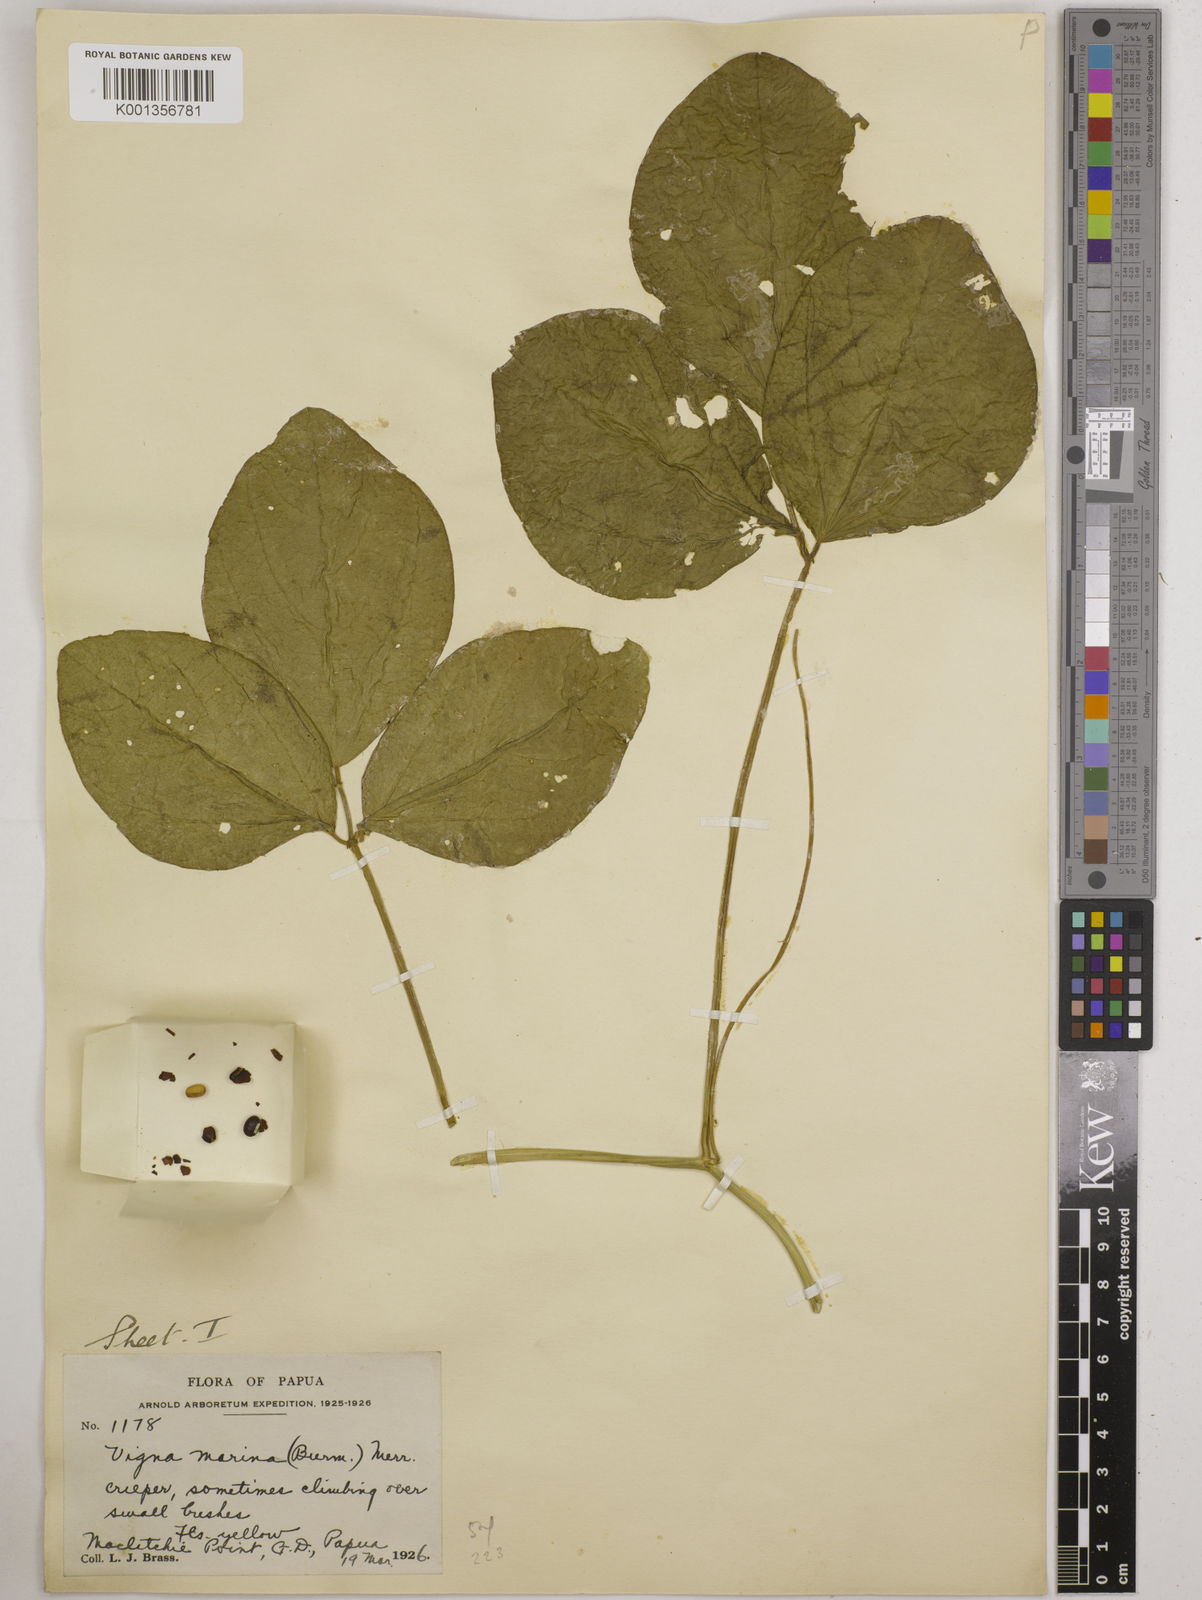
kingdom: Plantae
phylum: Tracheophyta
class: Magnoliopsida
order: Fabales
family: Fabaceae
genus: Vigna
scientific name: Vigna marina
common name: Dune-bean
